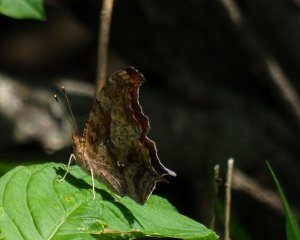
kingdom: Animalia
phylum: Arthropoda
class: Insecta
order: Lepidoptera
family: Nymphalidae
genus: Polygonia
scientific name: Polygonia interrogationis
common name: Question Mark
